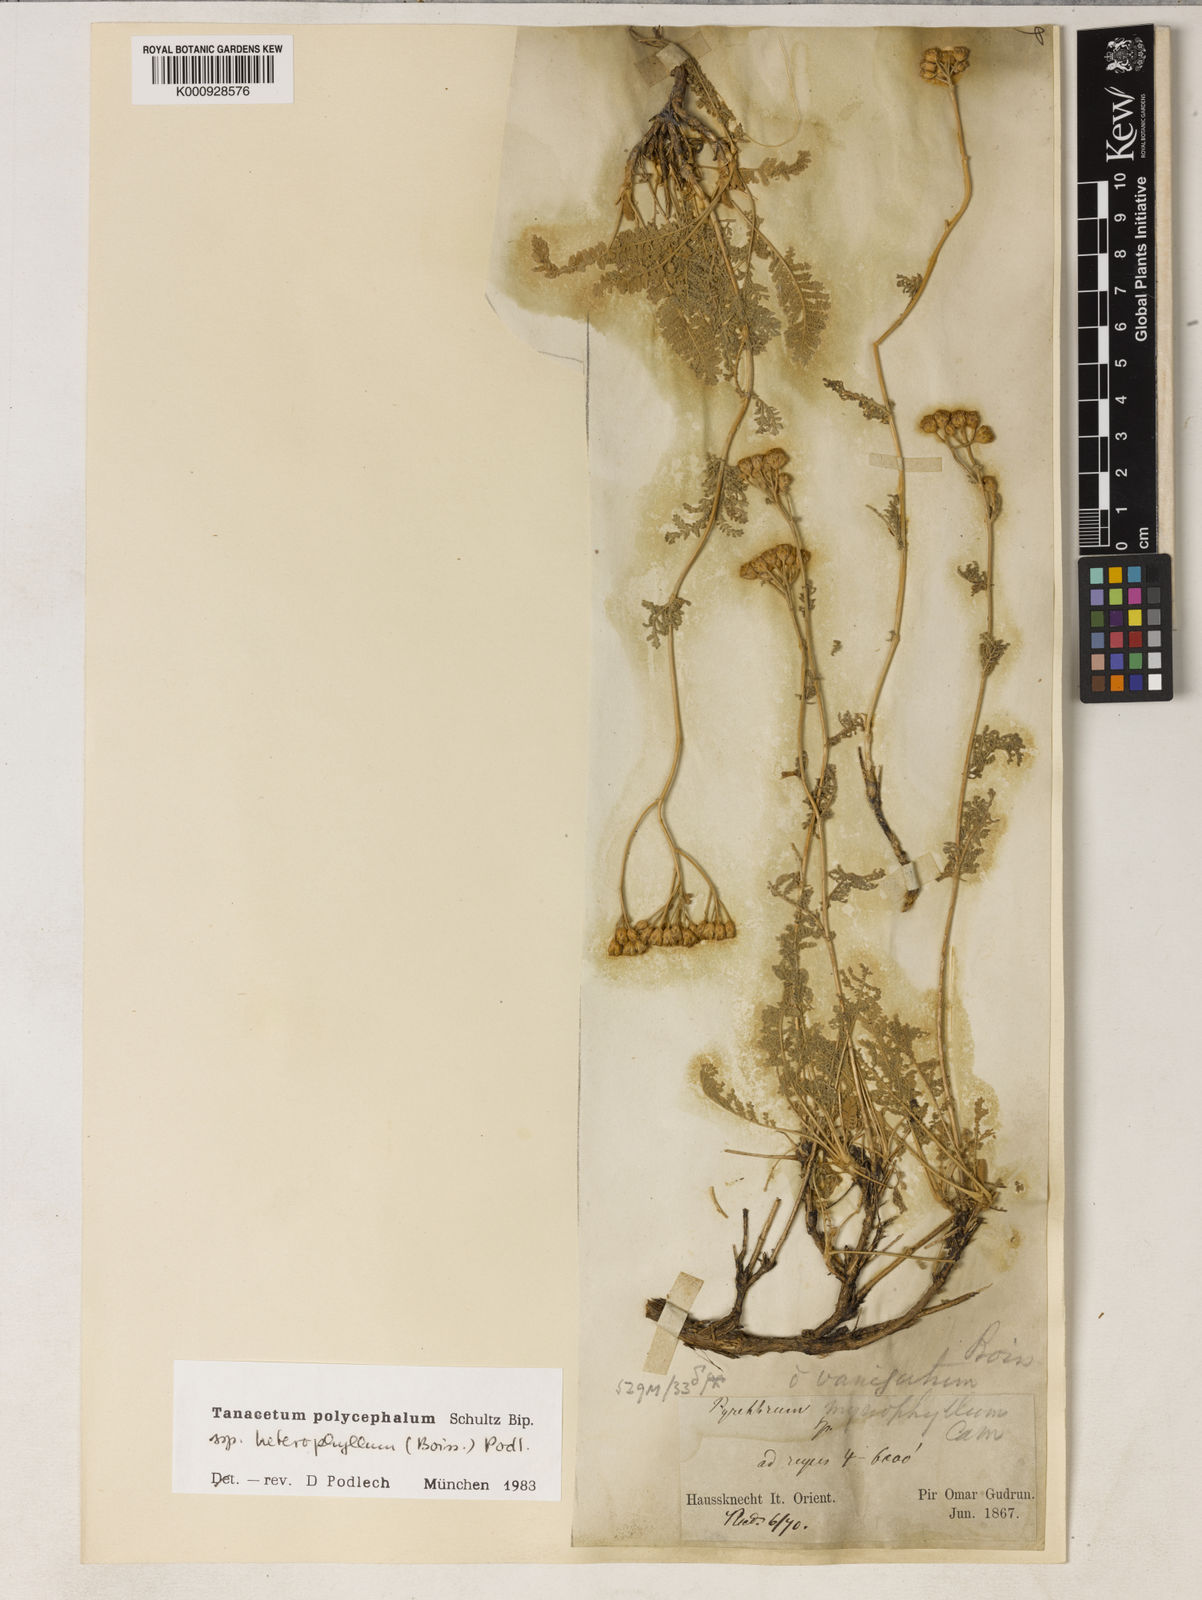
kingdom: Plantae
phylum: Tracheophyta
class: Magnoliopsida
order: Asterales
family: Asteraceae
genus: Tanacetum
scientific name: Tanacetum polycephalum
